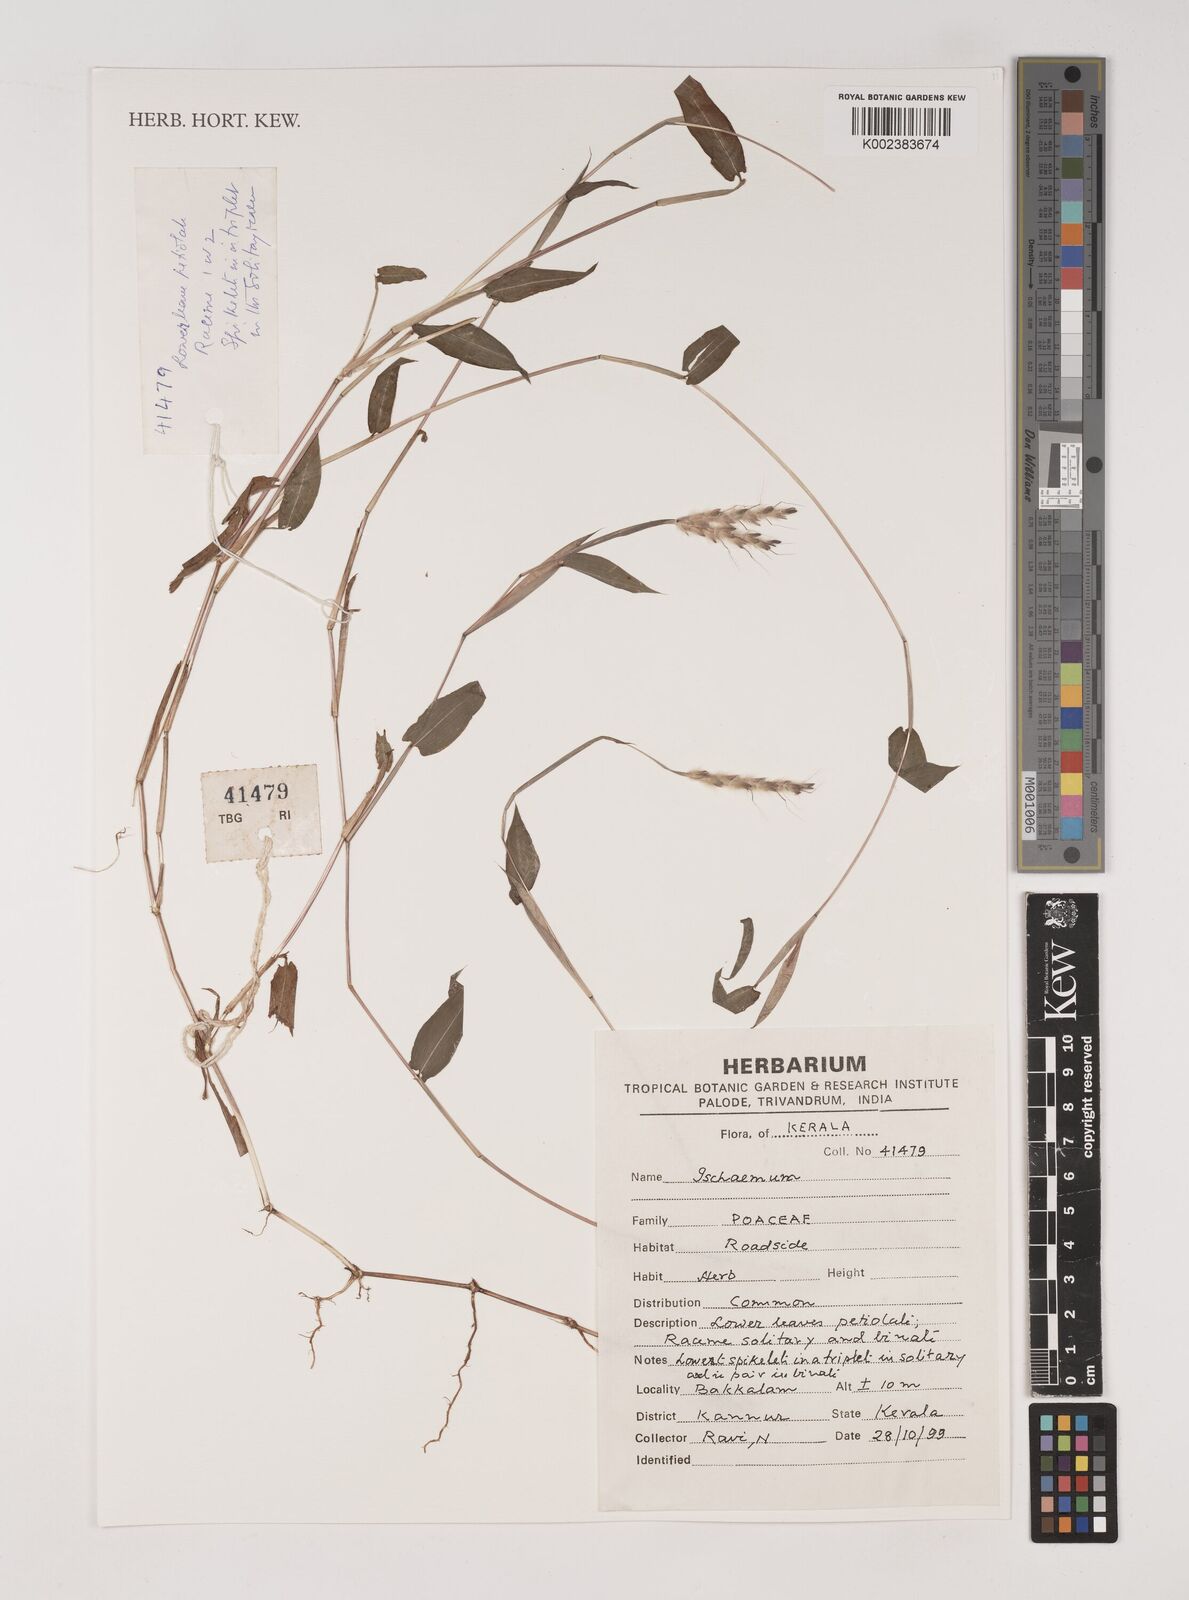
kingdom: Plantae
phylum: Tracheophyta
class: Liliopsida
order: Poales
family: Poaceae
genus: Ischaemum
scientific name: Ischaemum
